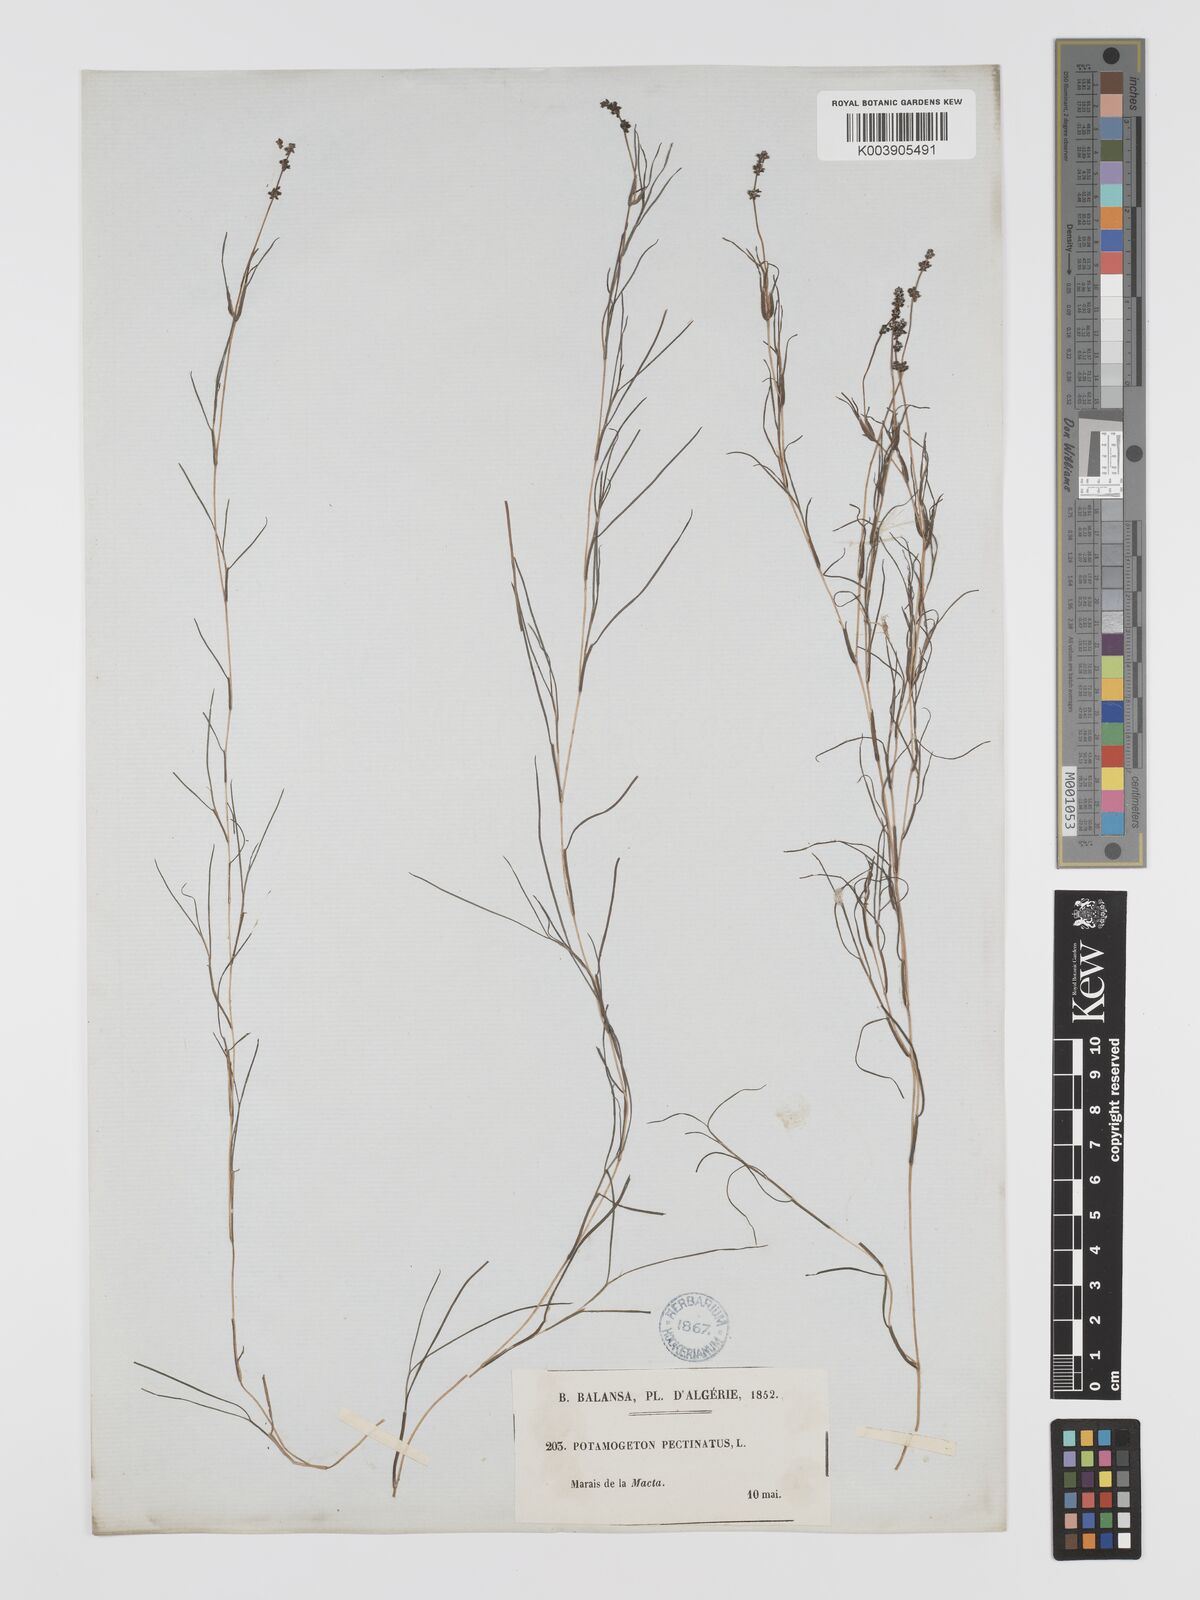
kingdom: Plantae
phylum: Tracheophyta
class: Liliopsida
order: Alismatales
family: Potamogetonaceae
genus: Stuckenia
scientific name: Stuckenia pectinata
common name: Sago pondweed
